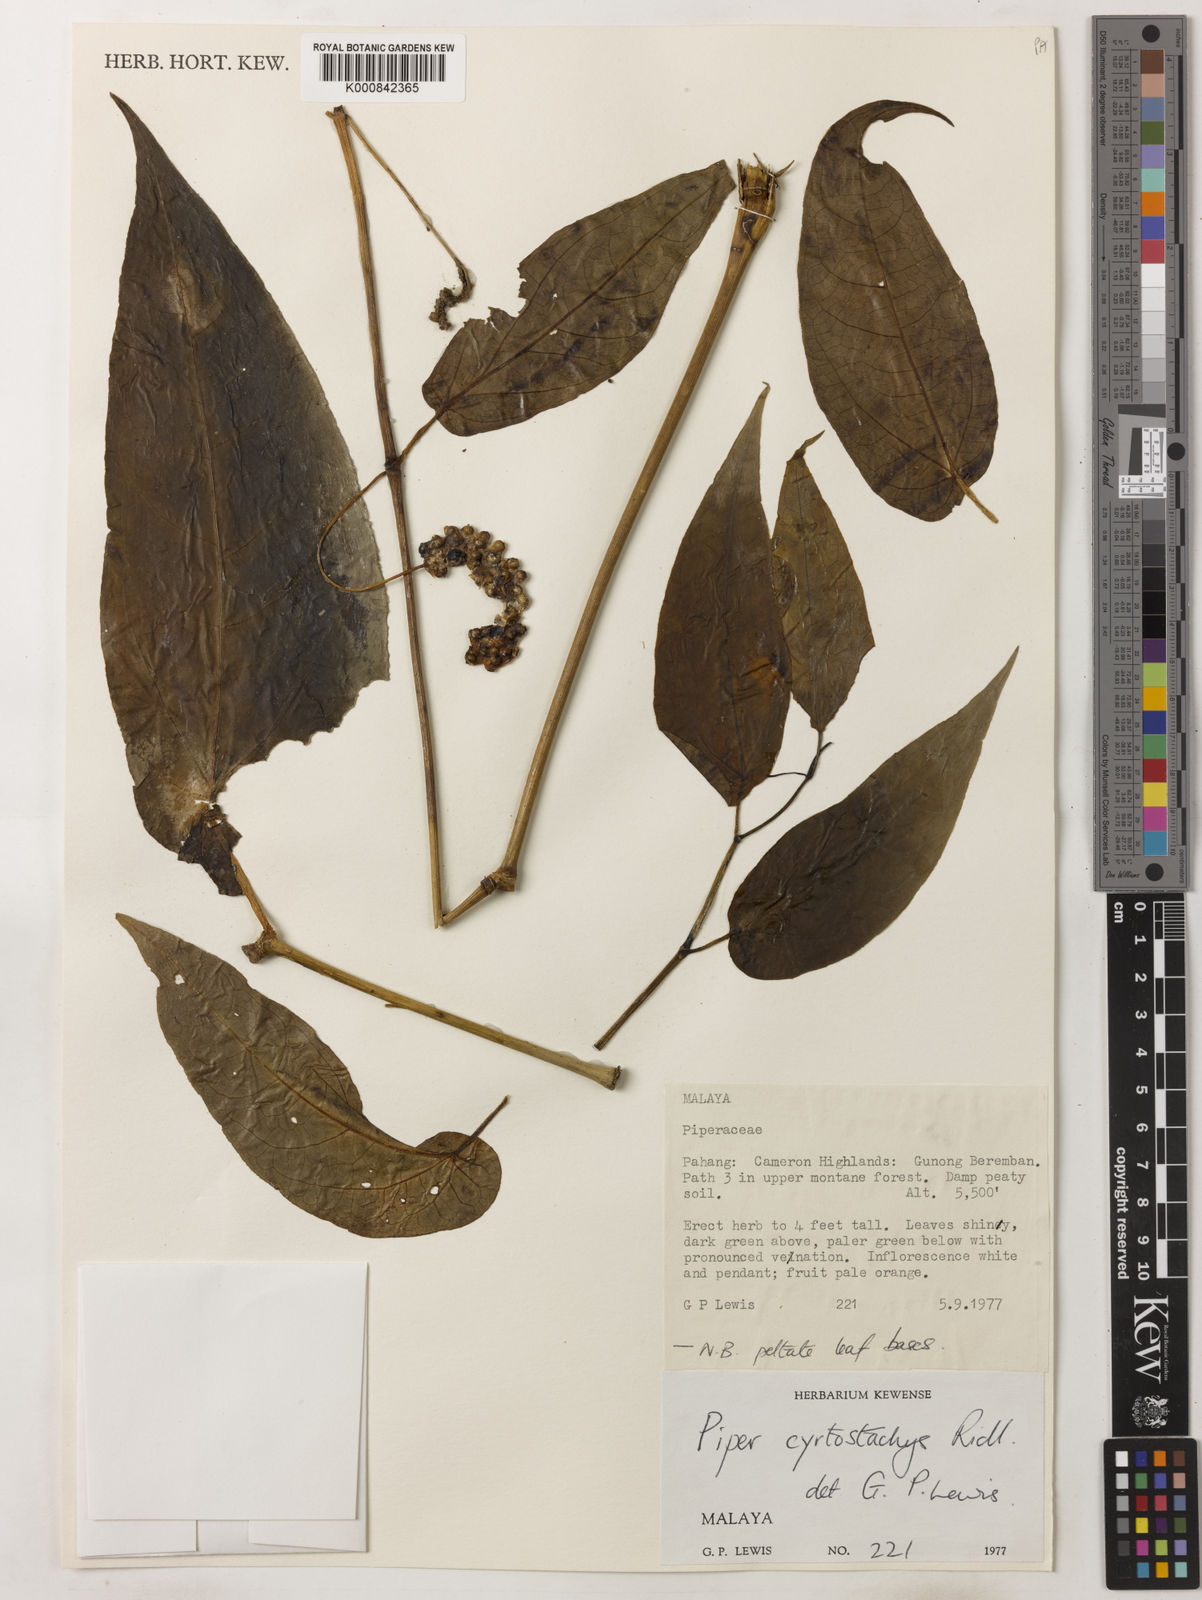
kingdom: Plantae
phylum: Tracheophyta
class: Magnoliopsida
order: Piperales
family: Piperaceae
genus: Piper
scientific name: Piper cyrtostachys
